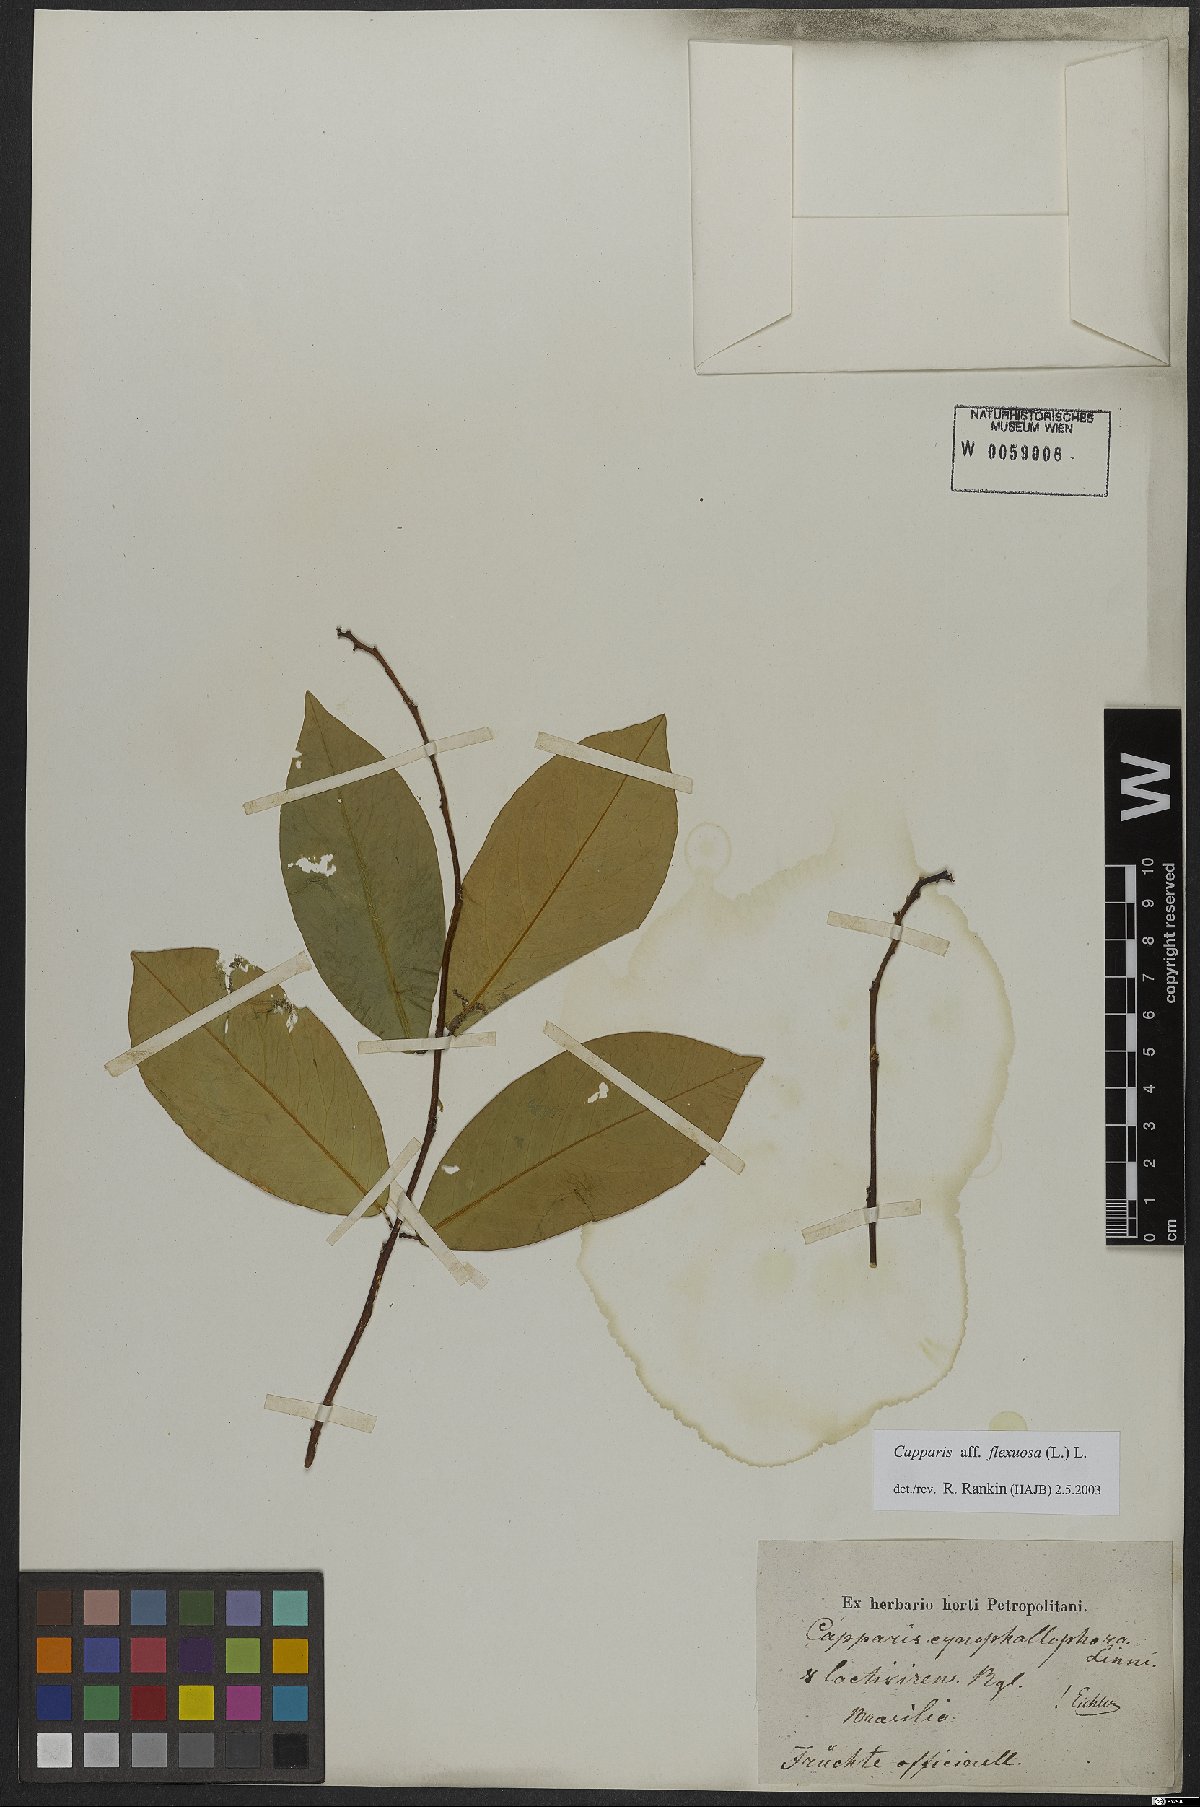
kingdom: Plantae
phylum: Tracheophyta
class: Magnoliopsida
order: Brassicales
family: Capparaceae
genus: Cynophalla
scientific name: Cynophalla flexuosa
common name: Capertree
